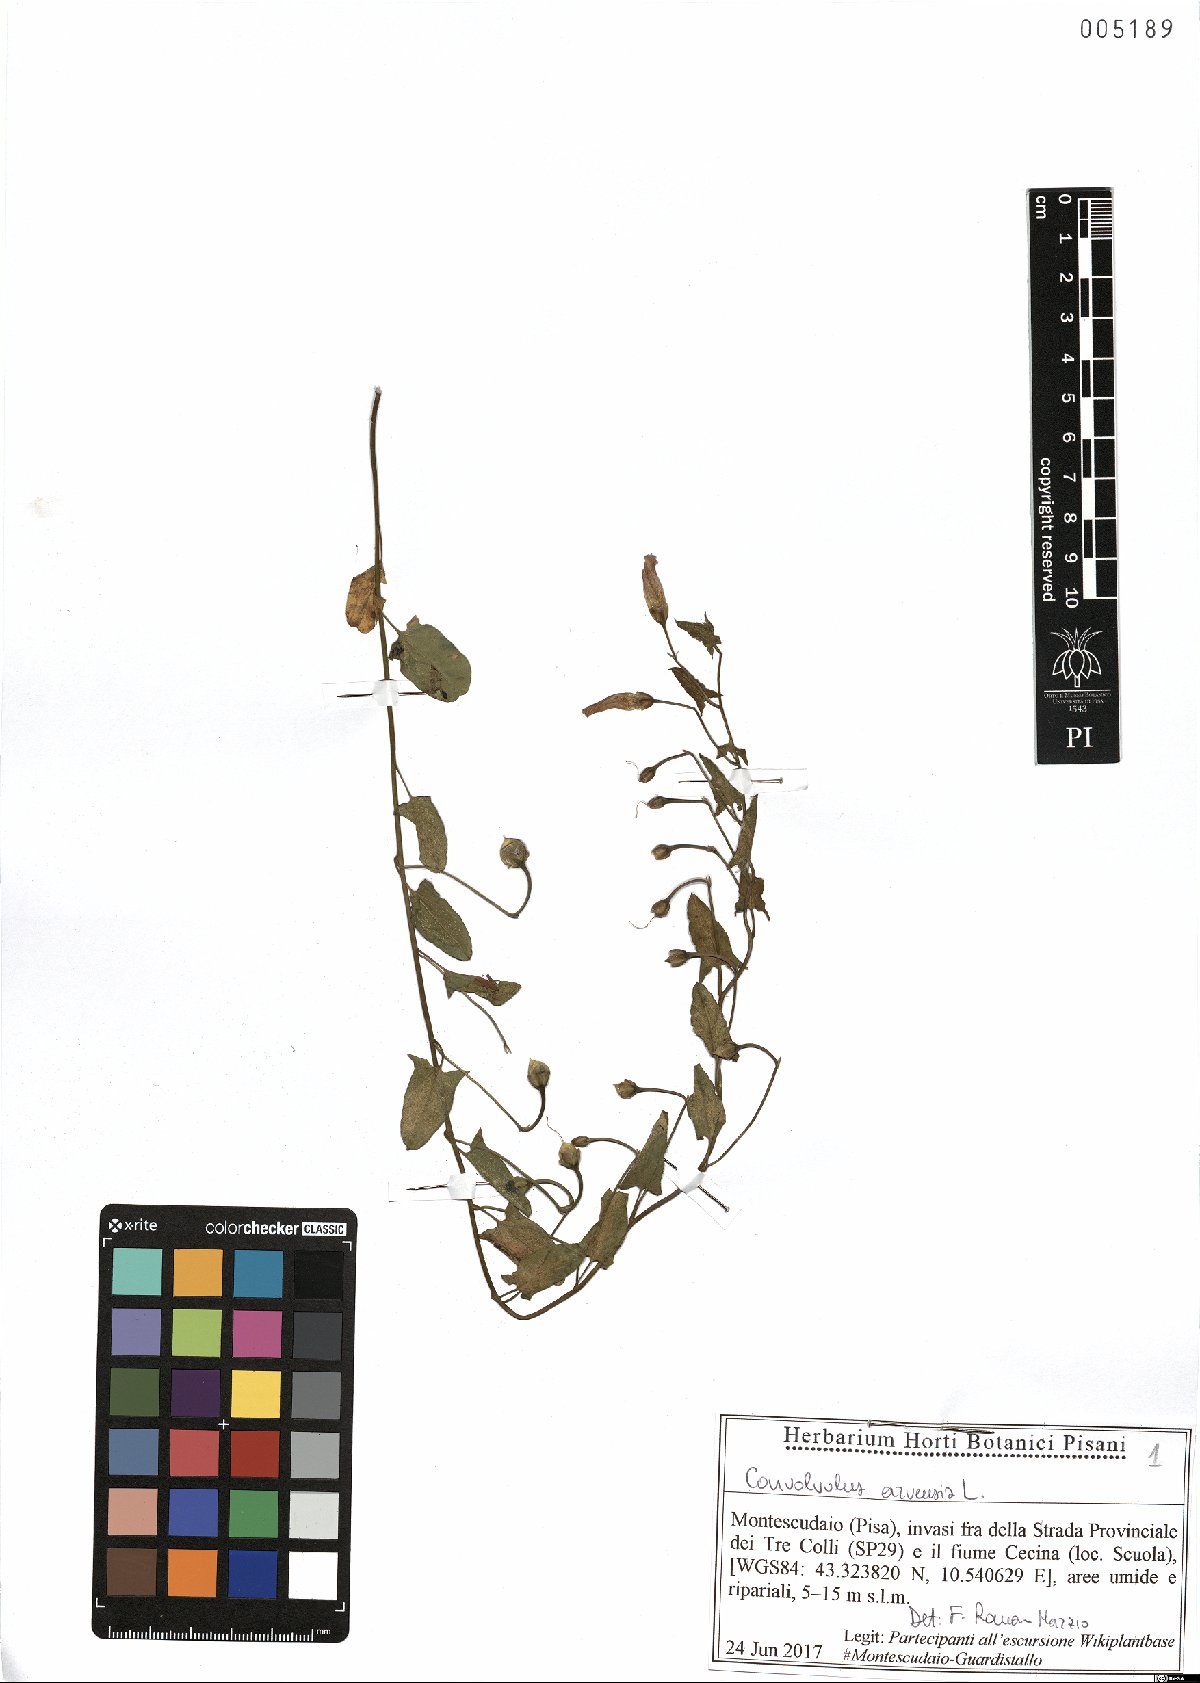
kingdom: Plantae
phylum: Tracheophyta
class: Magnoliopsida
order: Solanales
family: Convolvulaceae
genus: Convolvulus
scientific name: Convolvulus arvensis
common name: Field bindweed
